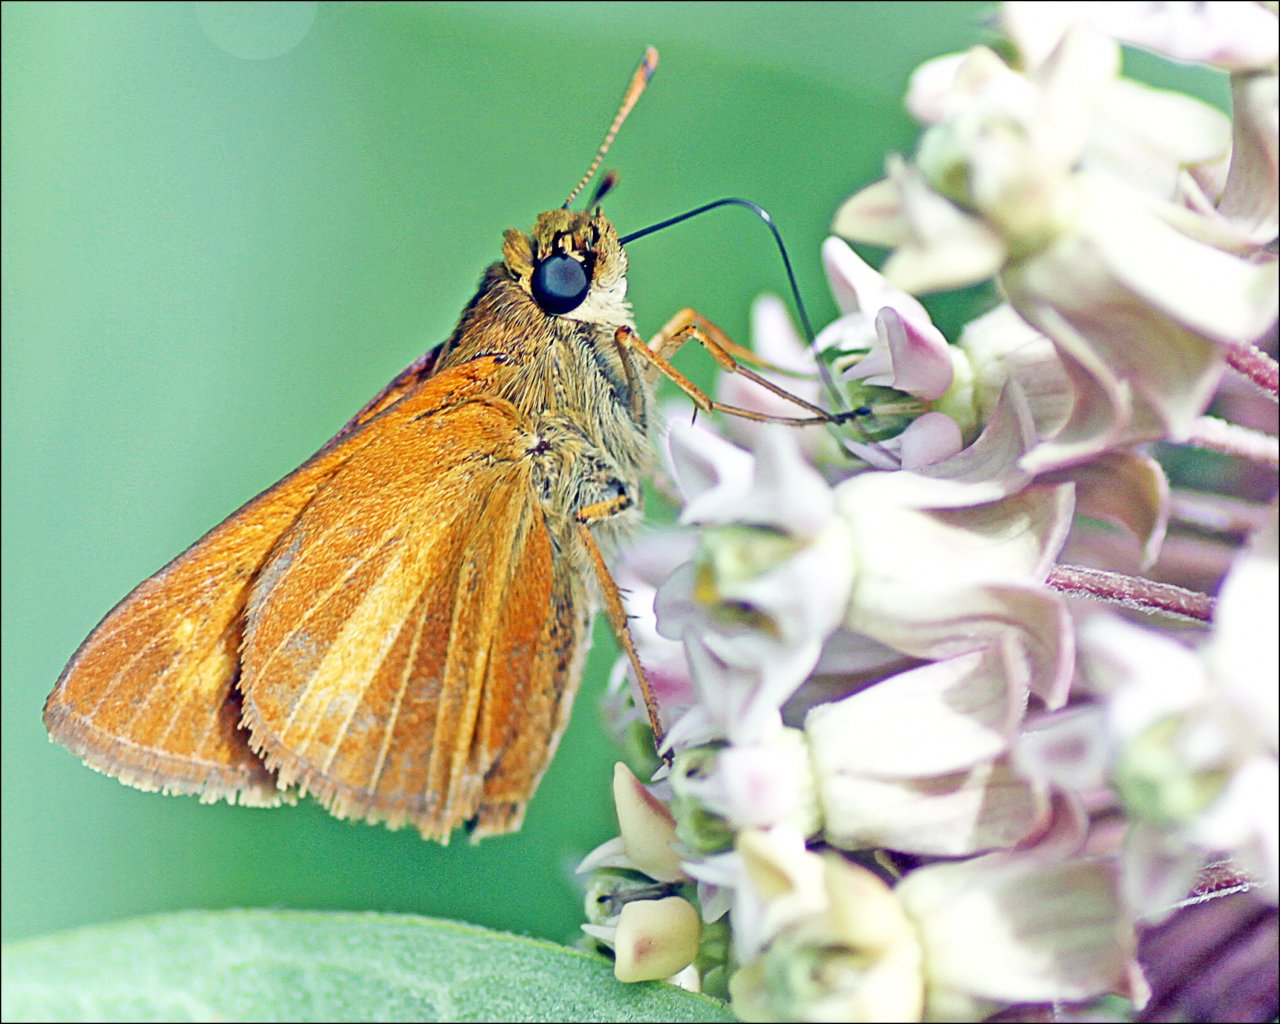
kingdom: Animalia
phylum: Arthropoda
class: Insecta
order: Lepidoptera
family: Hesperiidae
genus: Euphyes
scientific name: Euphyes dion
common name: Dion Skipper
